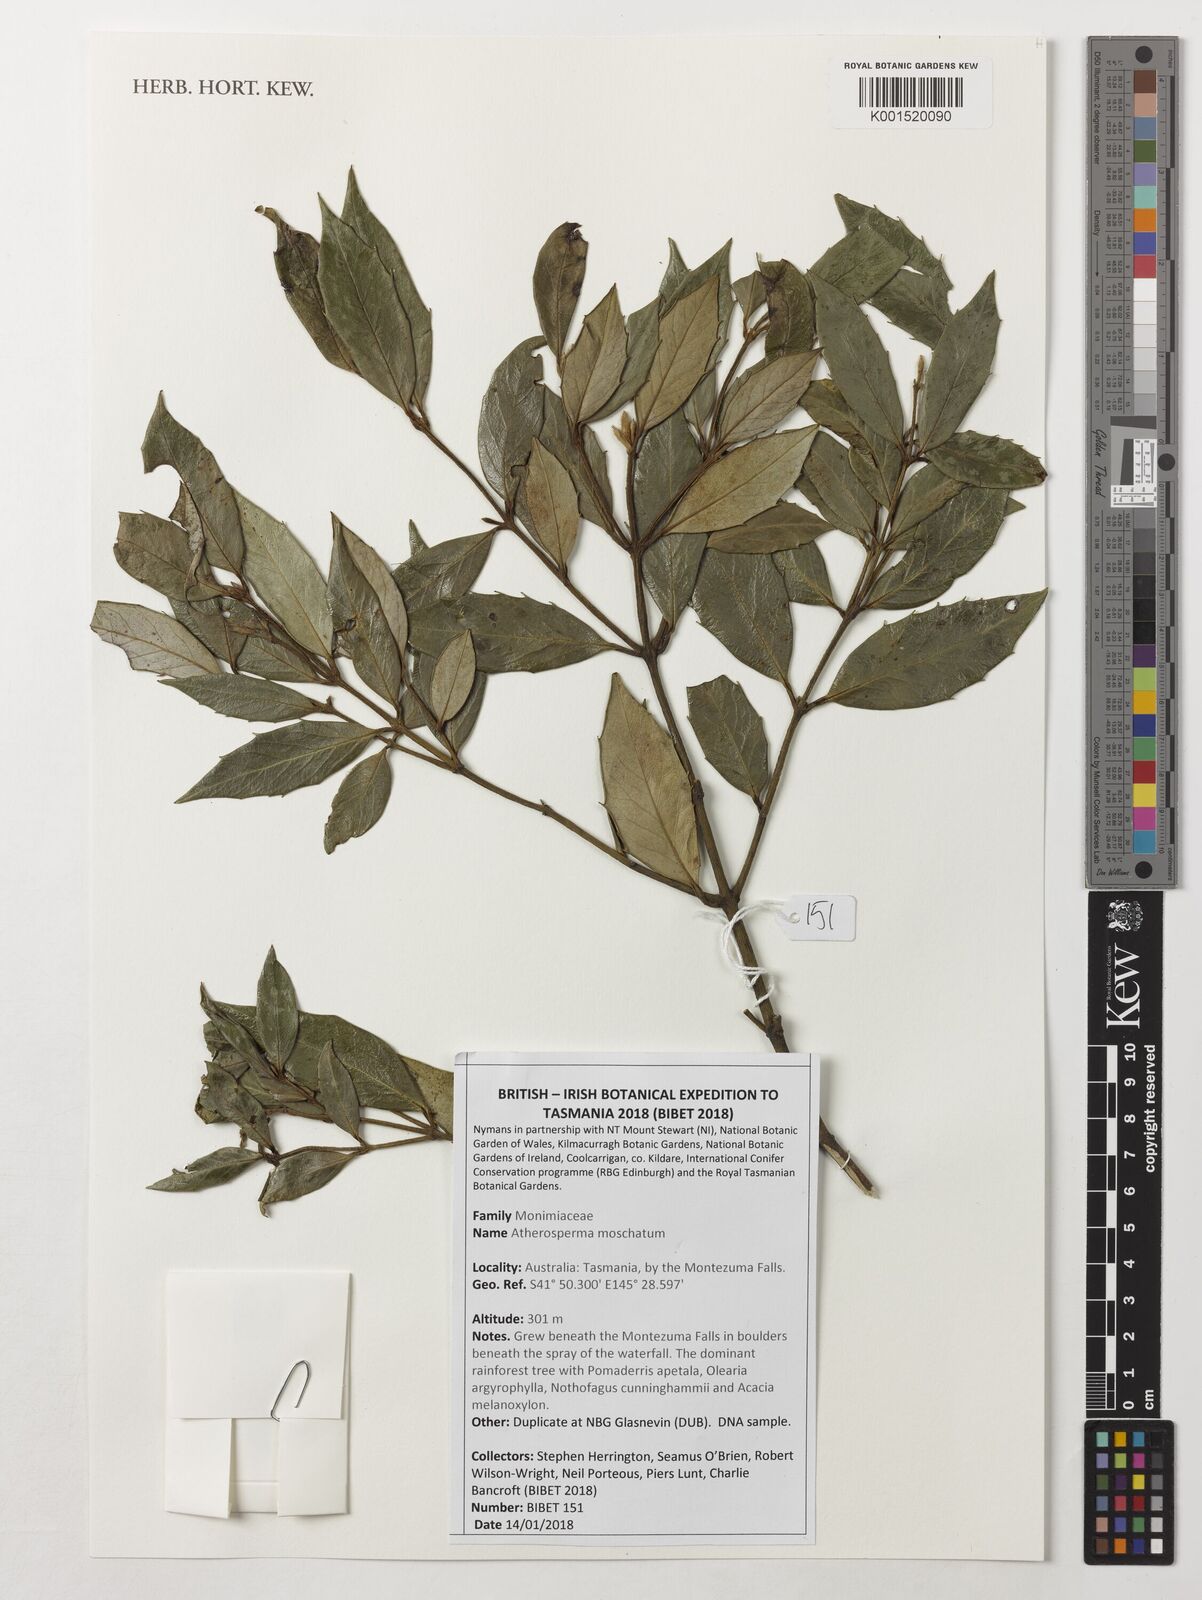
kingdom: Plantae
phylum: Tracheophyta
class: Magnoliopsida
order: Laurales
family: Atherospermataceae
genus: Atherosperma
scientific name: Atherosperma moschatum
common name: Tasmanian-sassafras
